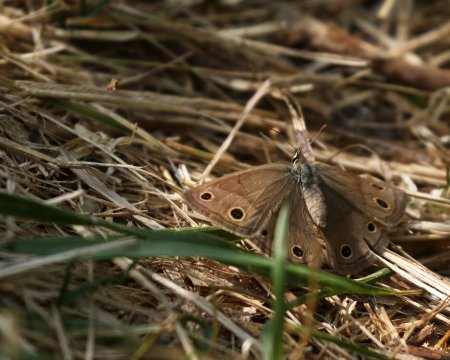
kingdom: Animalia
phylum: Arthropoda
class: Insecta
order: Lepidoptera
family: Nymphalidae
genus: Euptychia
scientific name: Euptychia cymela
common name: Little Wood Satyr
